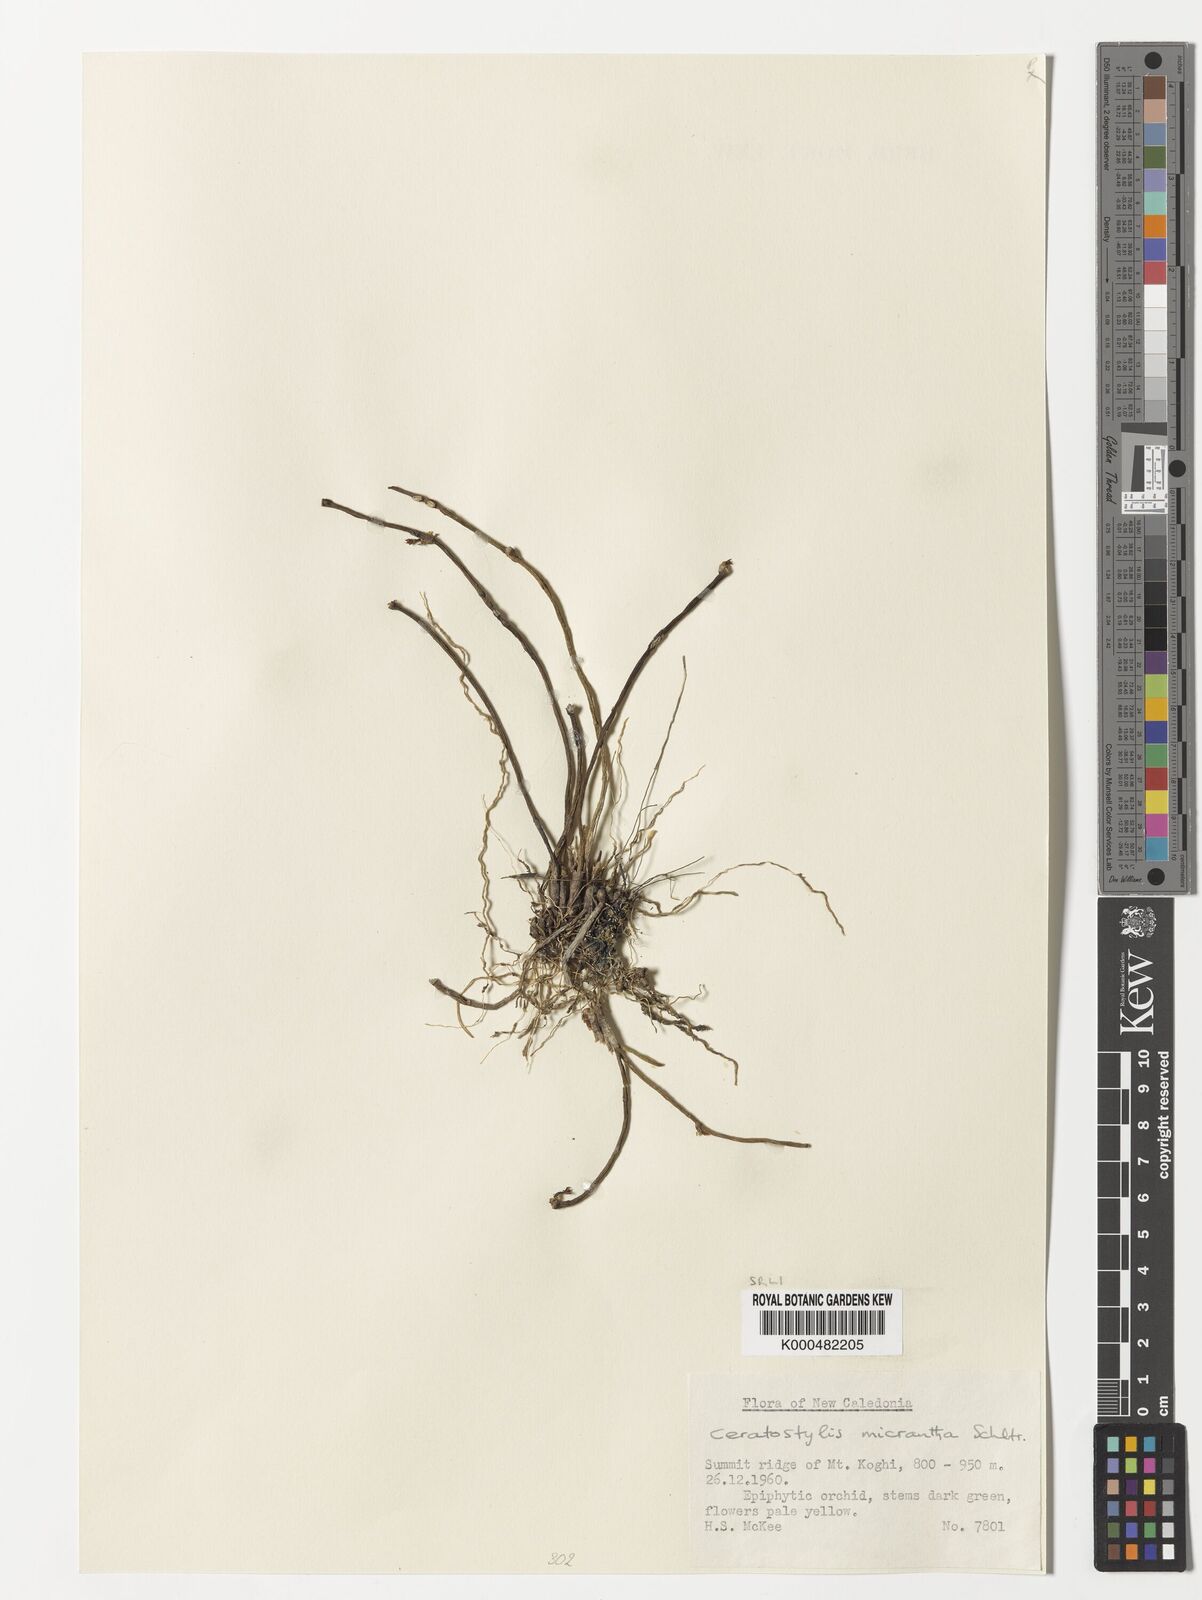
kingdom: Plantae
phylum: Tracheophyta
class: Liliopsida
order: Asparagales
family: Orchidaceae
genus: Ceratostylis
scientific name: Ceratostylis
